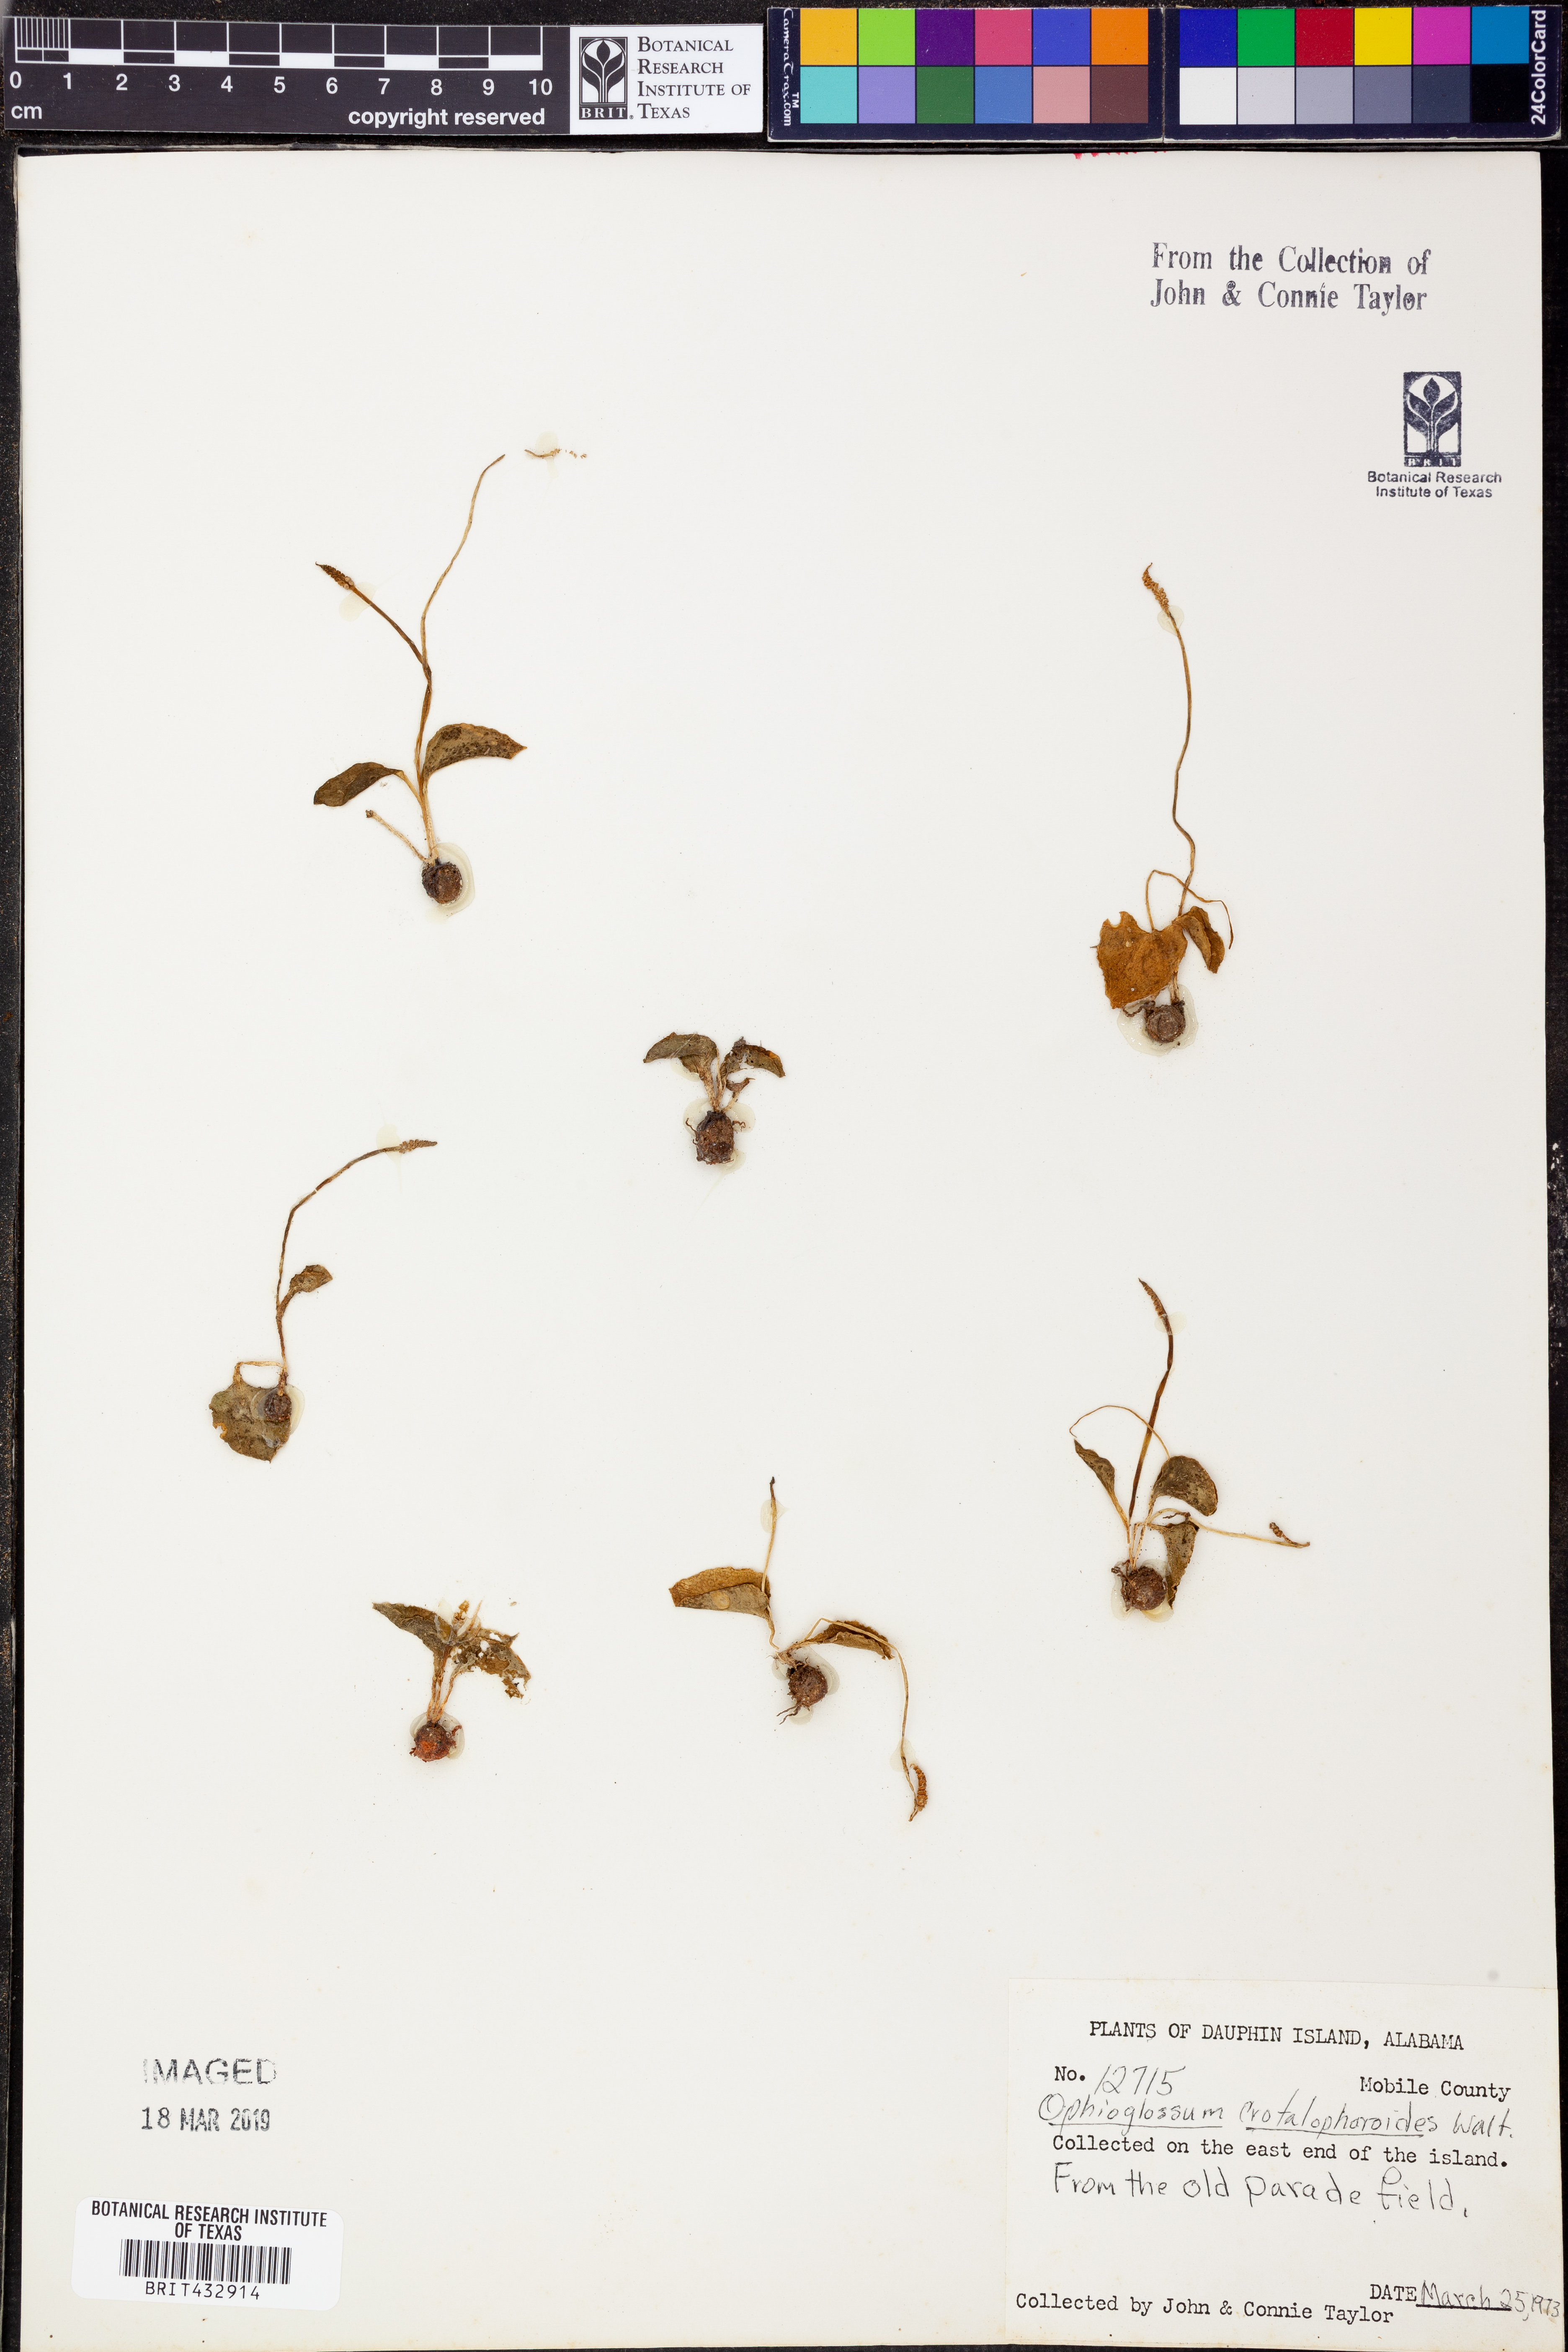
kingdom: Plantae
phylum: Tracheophyta
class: Polypodiopsida
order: Ophioglossales
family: Ophioglossaceae
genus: Ophioglossum
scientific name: Ophioglossum crotalophoroides
